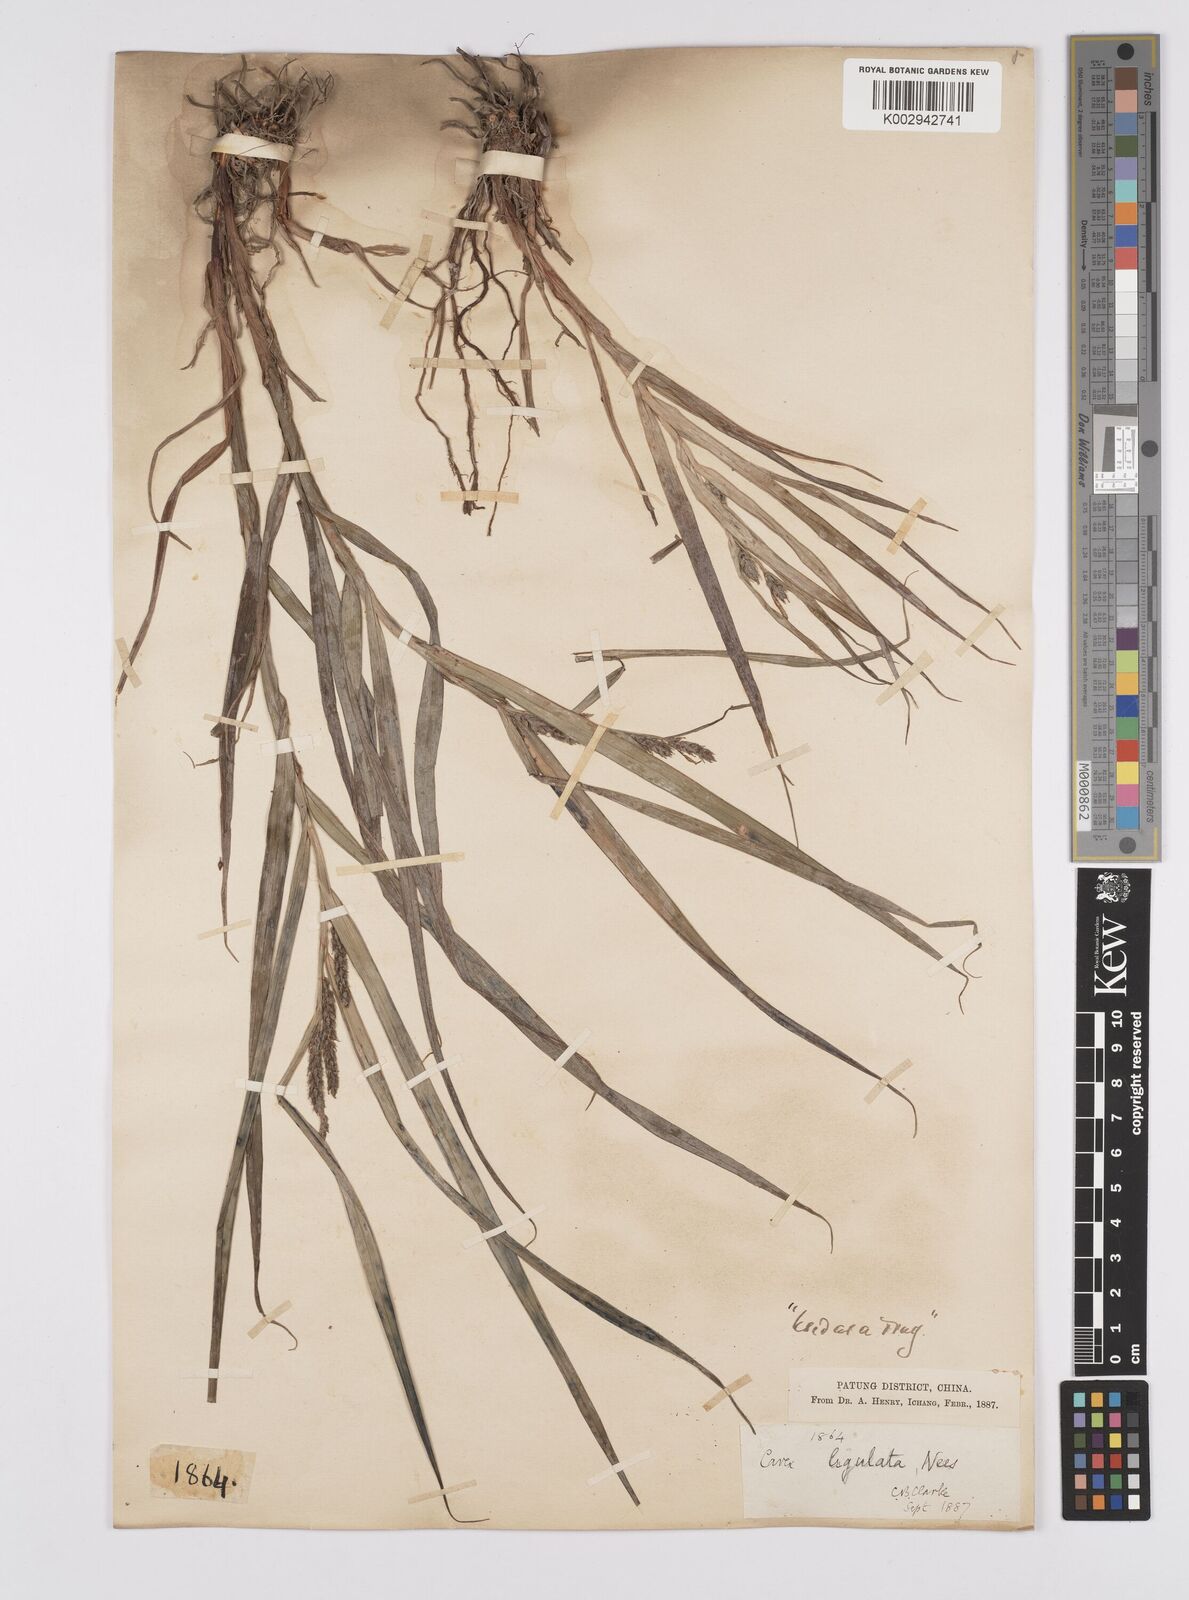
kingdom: Plantae
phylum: Tracheophyta
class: Liliopsida
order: Poales
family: Cyperaceae
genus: Carex
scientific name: Carex ligulata
